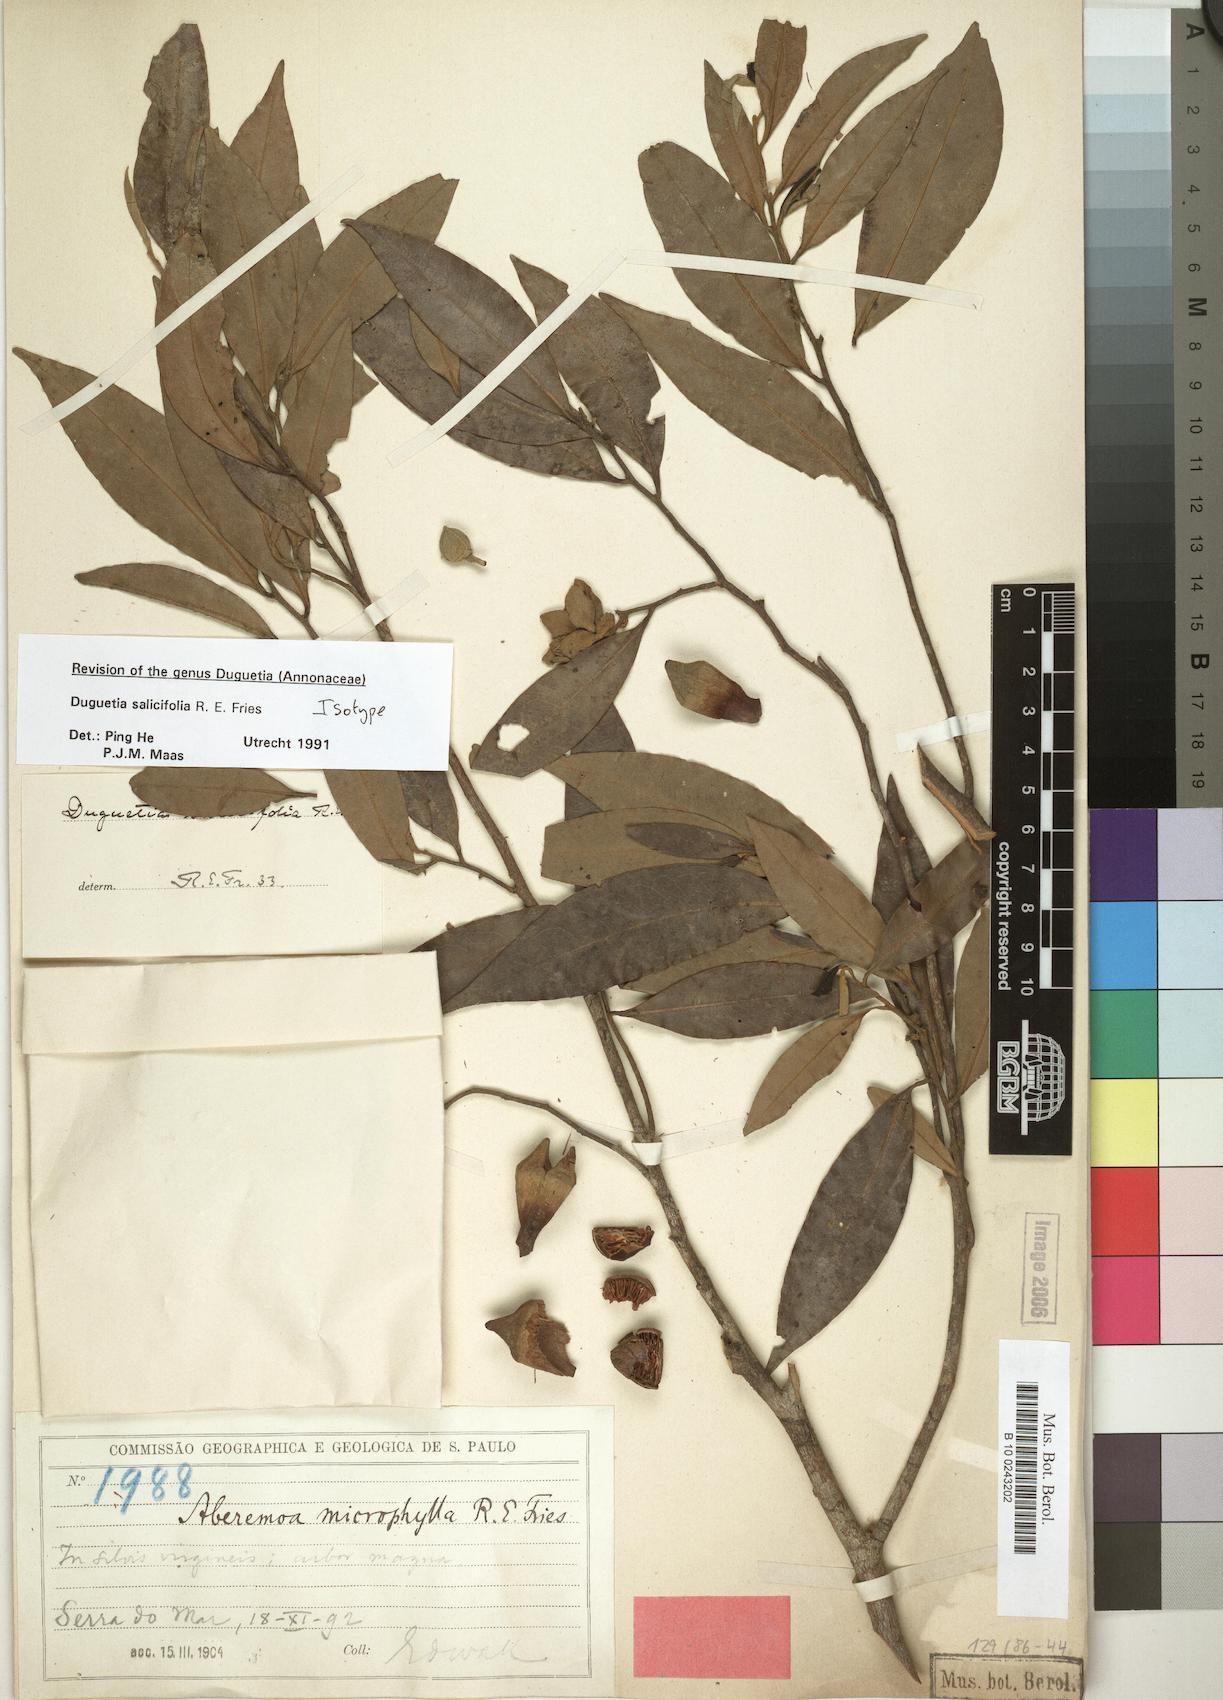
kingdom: Plantae
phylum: Tracheophyta
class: Magnoliopsida
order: Magnoliales
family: Annonaceae
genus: Duguetia
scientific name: Duguetia salicifolia
